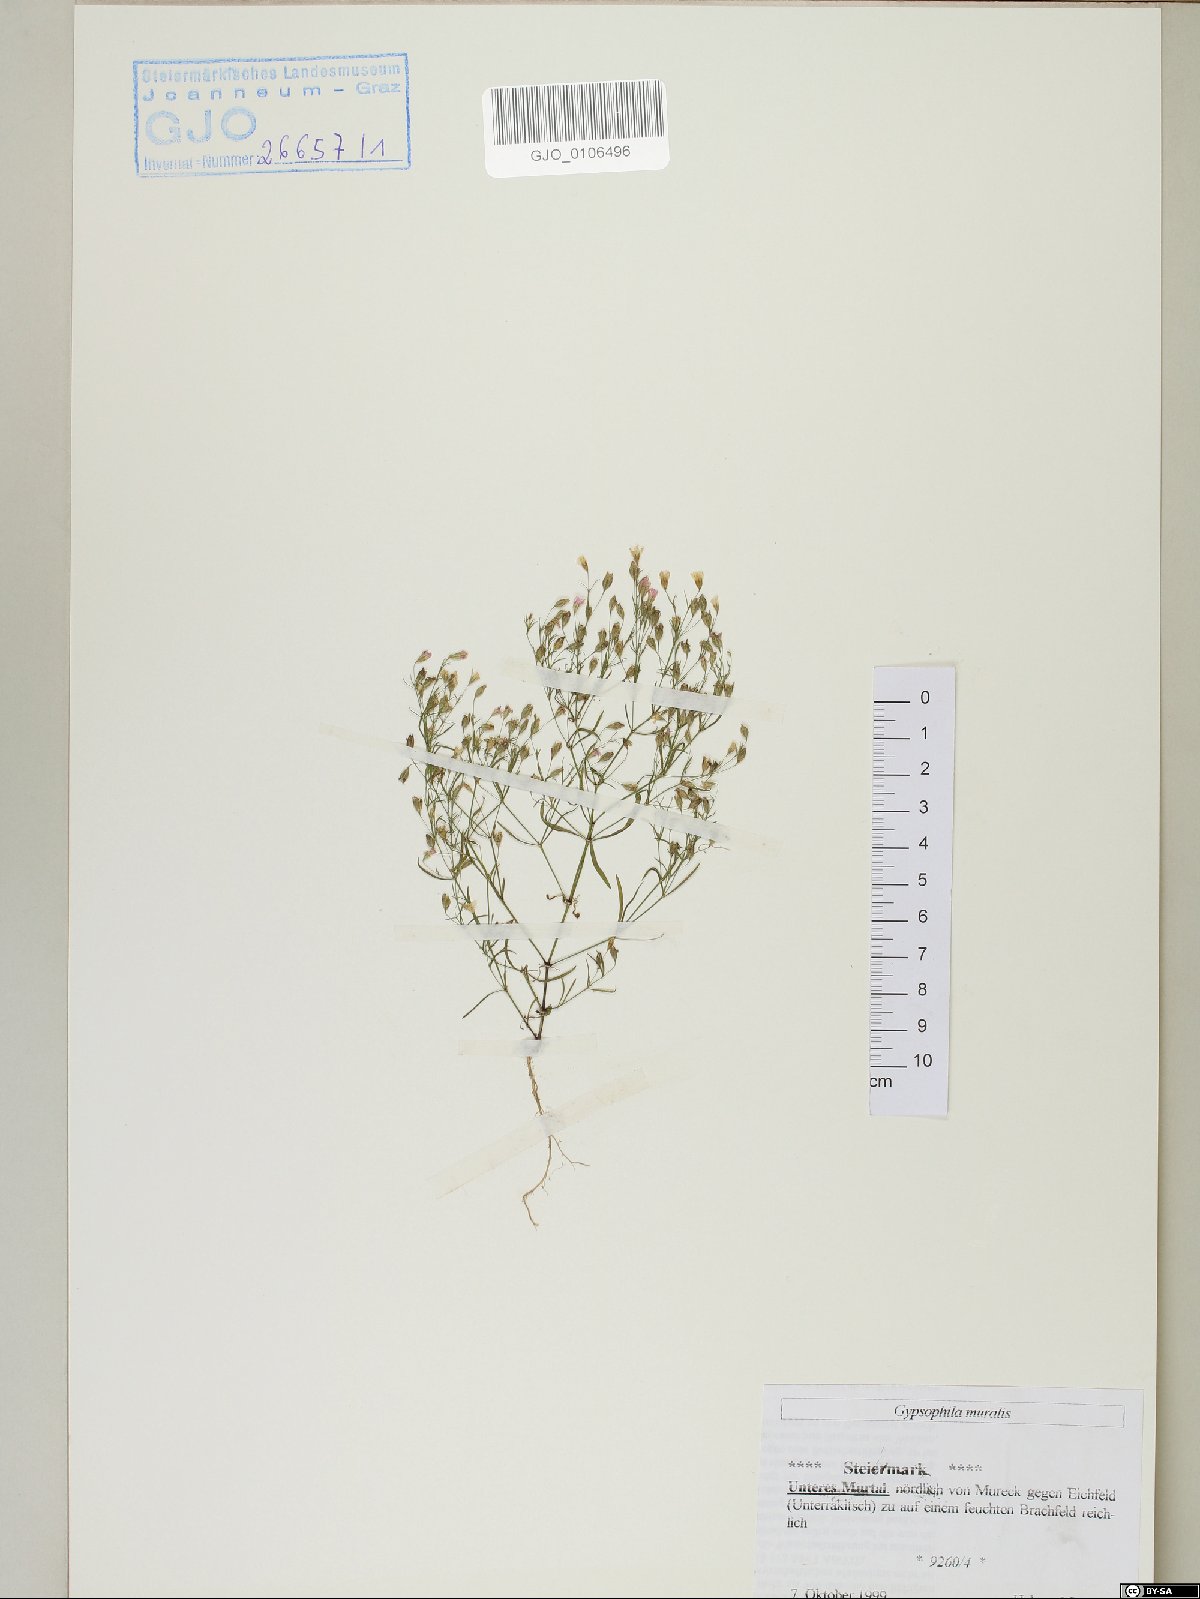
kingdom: Plantae
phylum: Tracheophyta
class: Magnoliopsida
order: Caryophyllales
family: Caryophyllaceae
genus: Psammophiliella
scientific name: Psammophiliella muralis
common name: Cushion baby's-breath
